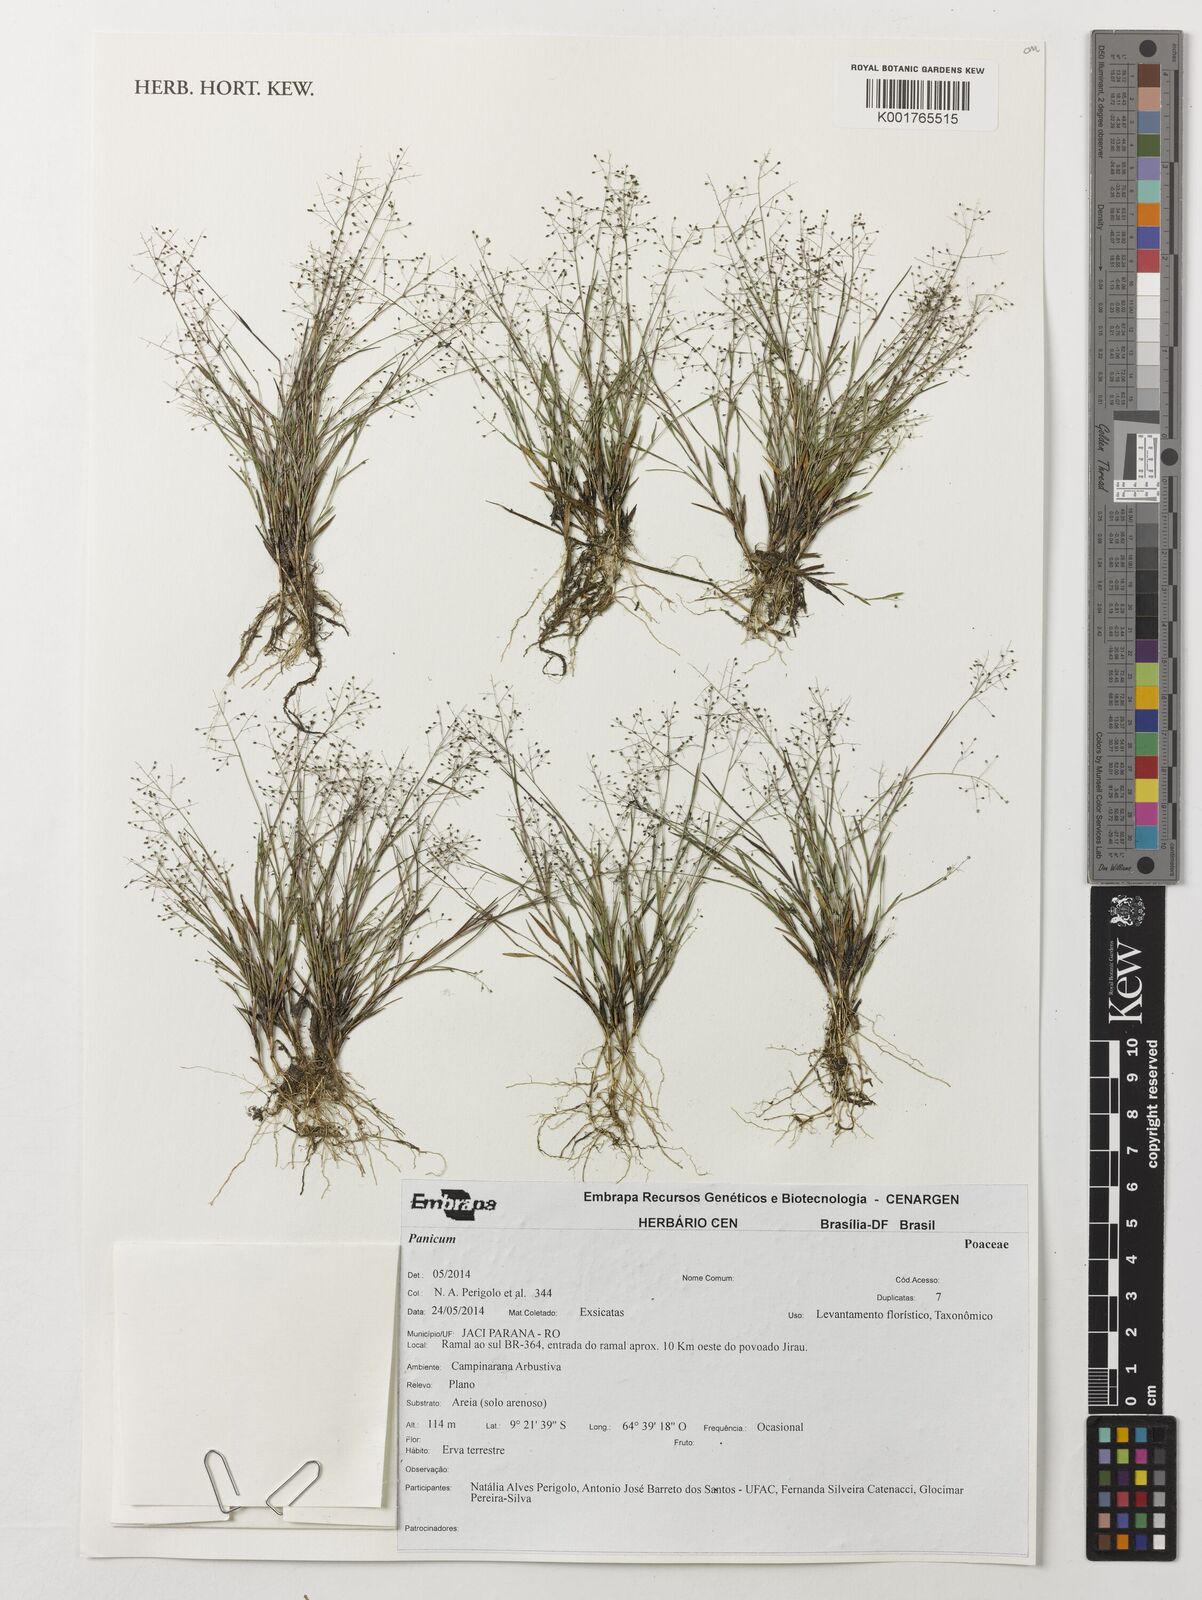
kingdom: Plantae
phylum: Tracheophyta
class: Liliopsida
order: Poales
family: Poaceae
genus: Panicum
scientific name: Panicum
